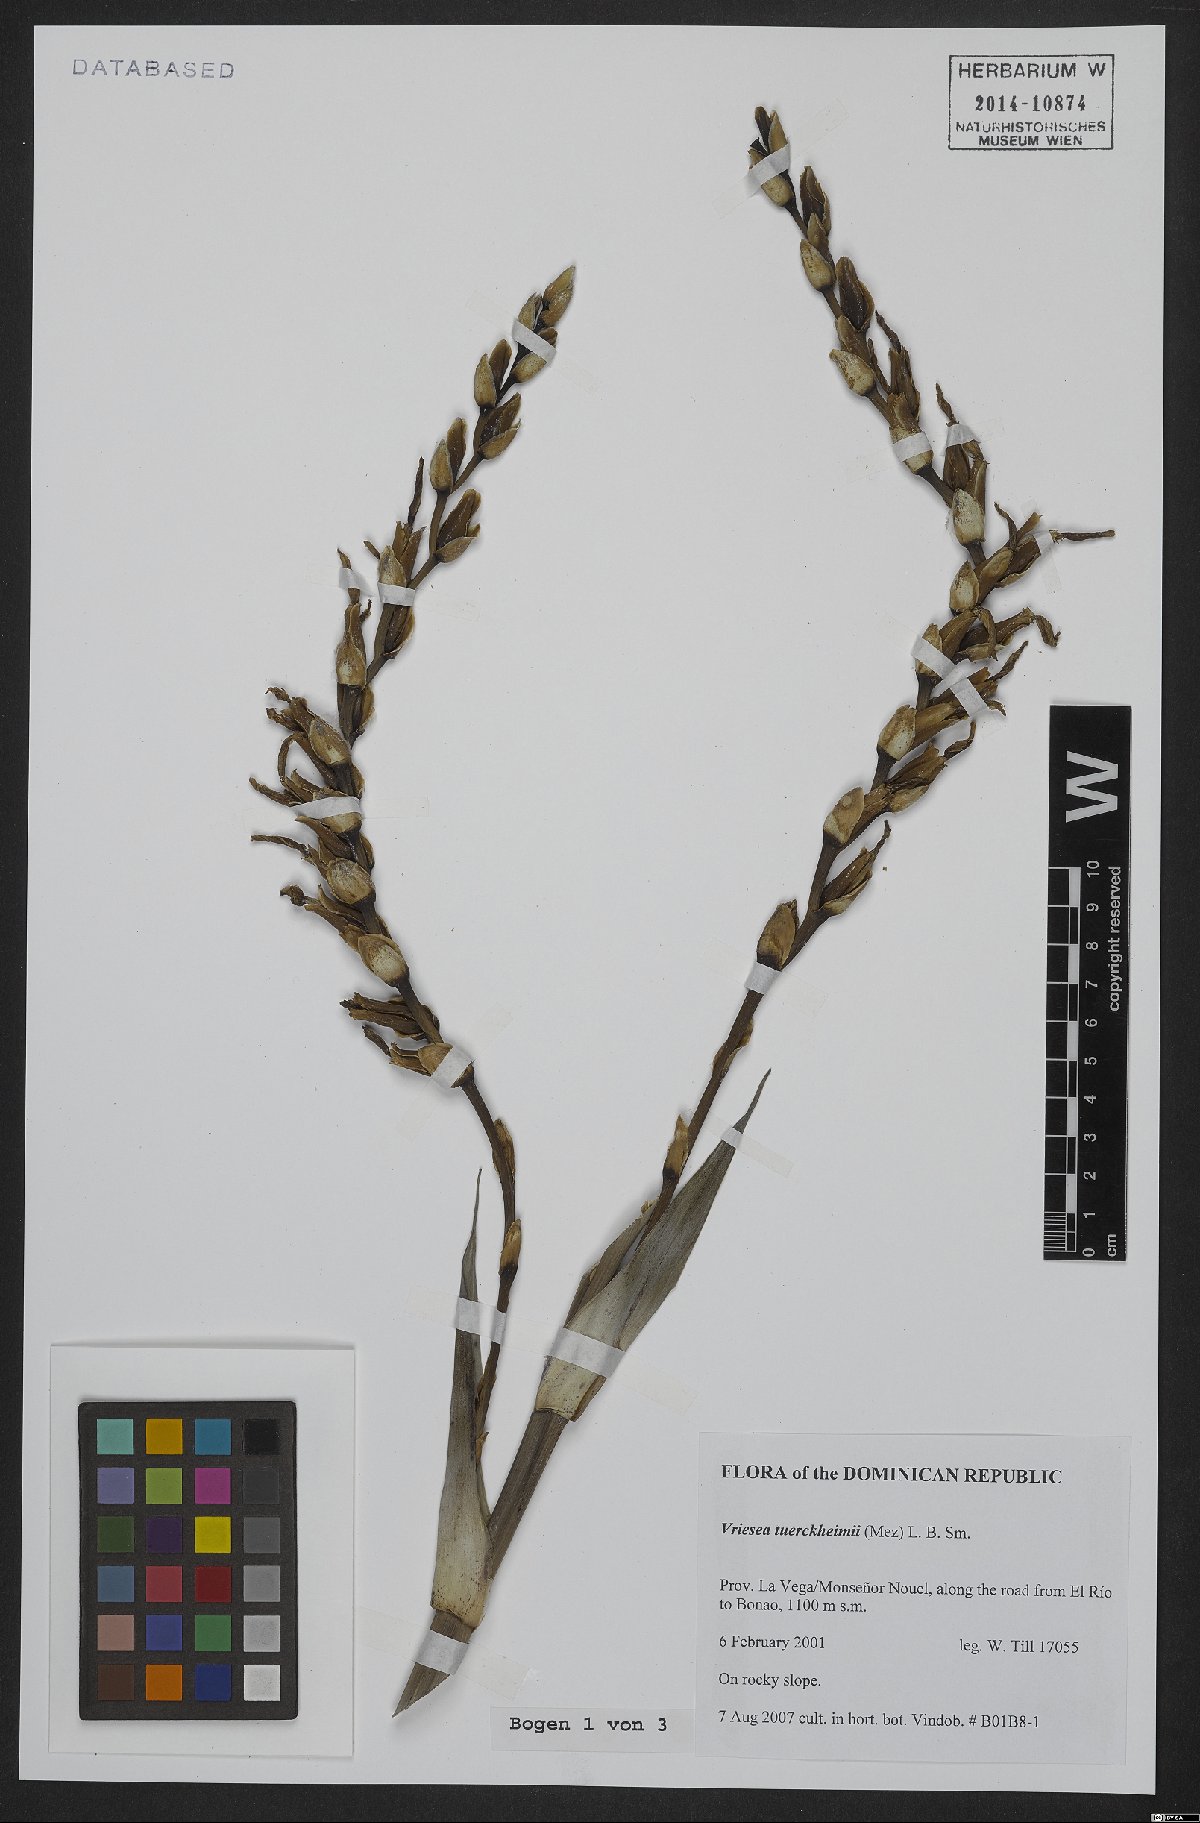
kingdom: Plantae
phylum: Tracheophyta
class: Liliopsida
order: Poales
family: Bromeliaceae
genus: Zizkaea
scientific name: Zizkaea tuerckheimii
